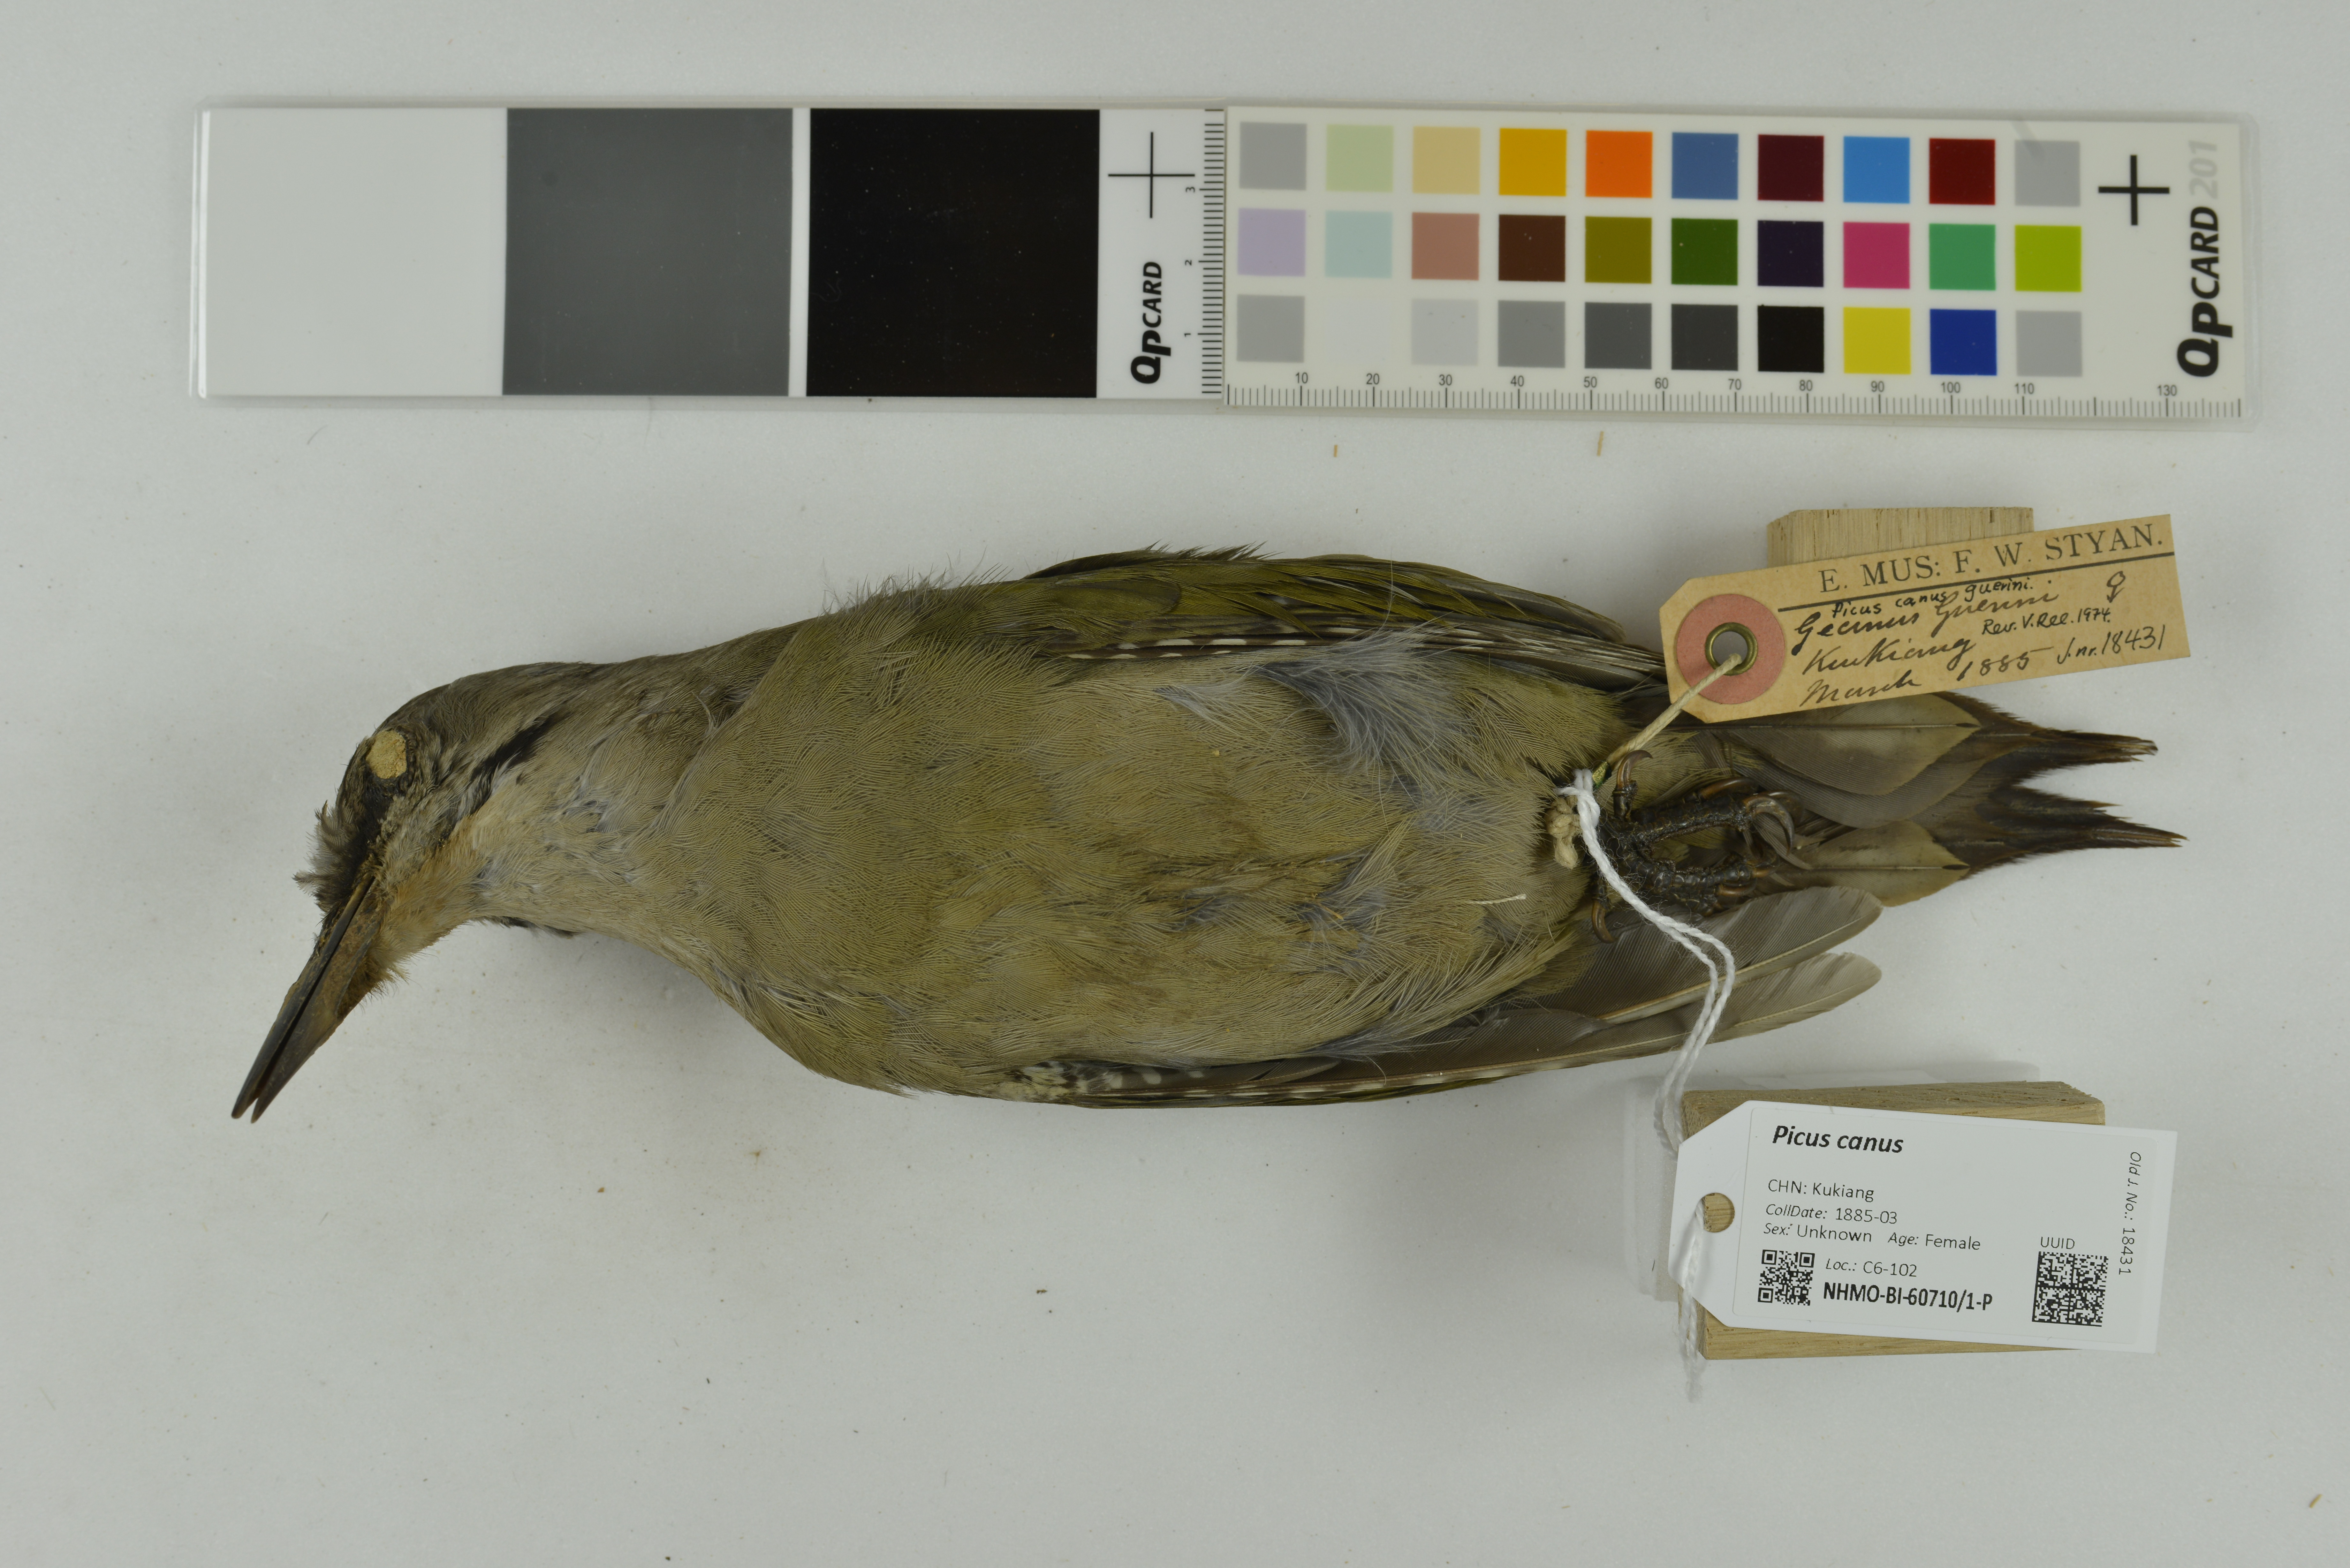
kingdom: Animalia
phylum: Chordata
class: Aves
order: Piciformes
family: Picidae
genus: Picus
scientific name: Picus canus
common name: Grey-headed woodpecker
